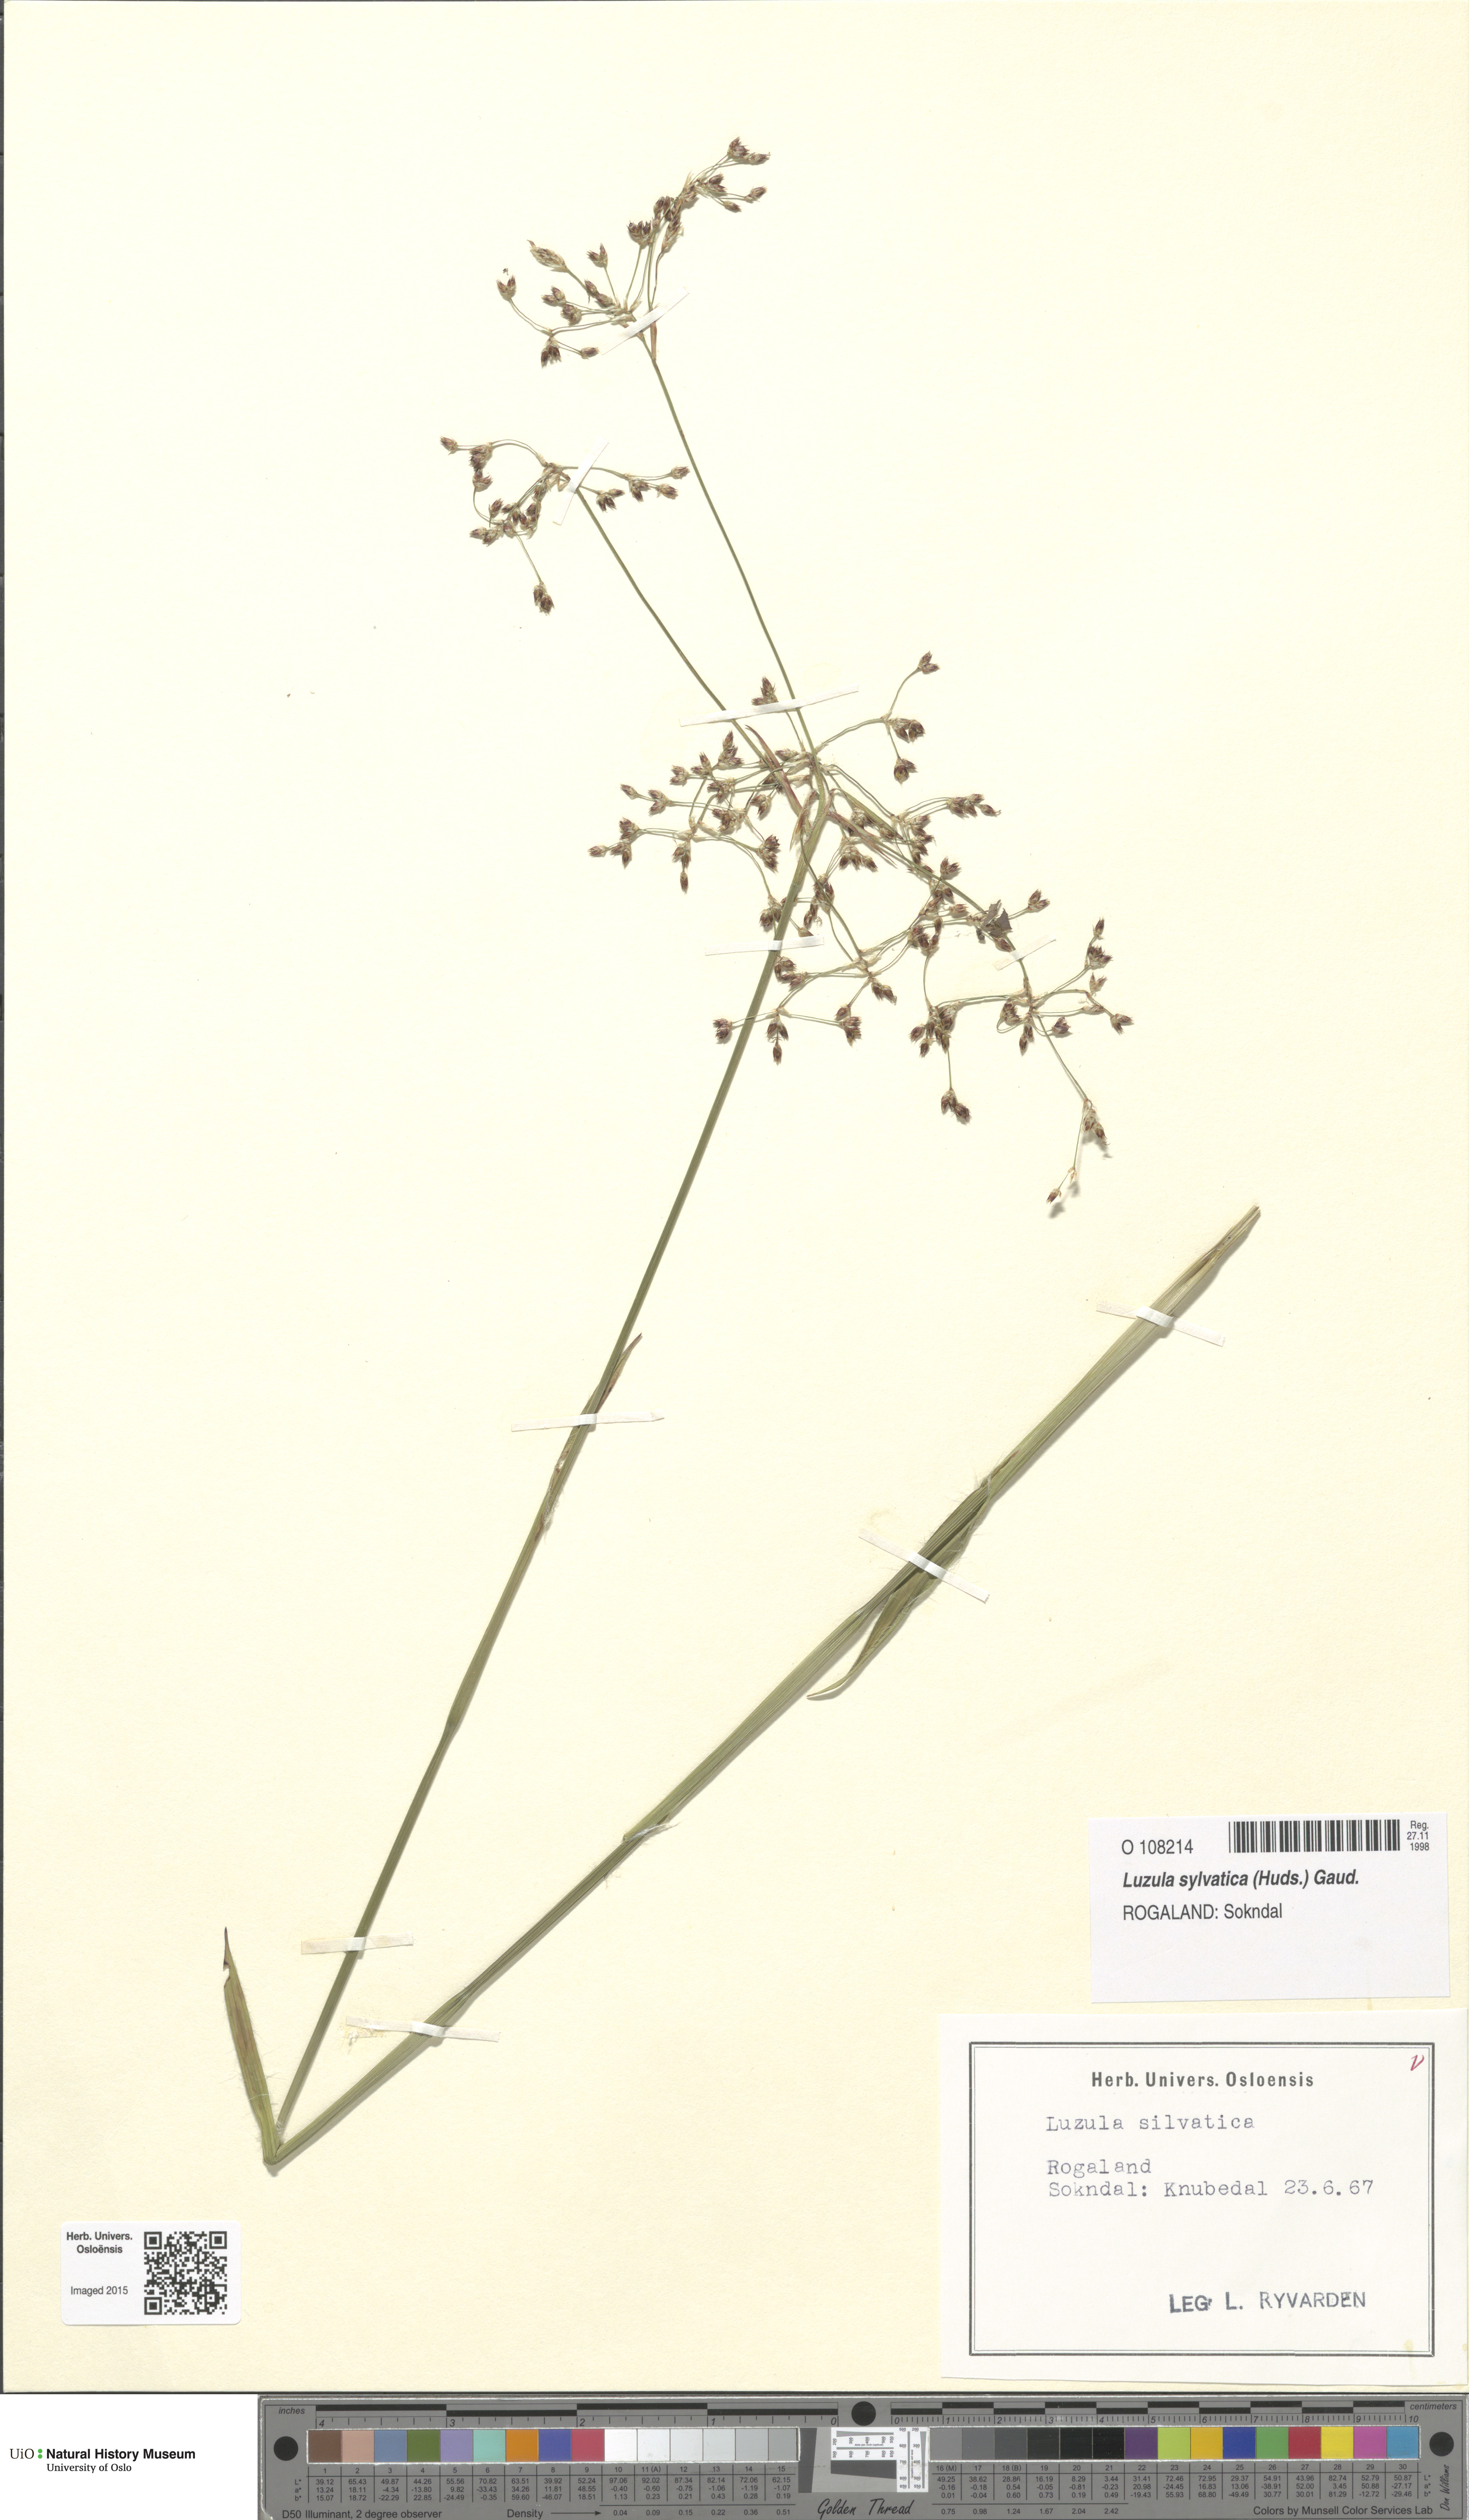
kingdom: Plantae
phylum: Tracheophyta
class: Liliopsida
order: Poales
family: Juncaceae
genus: Luzula
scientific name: Luzula sylvatica
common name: Great wood-rush
